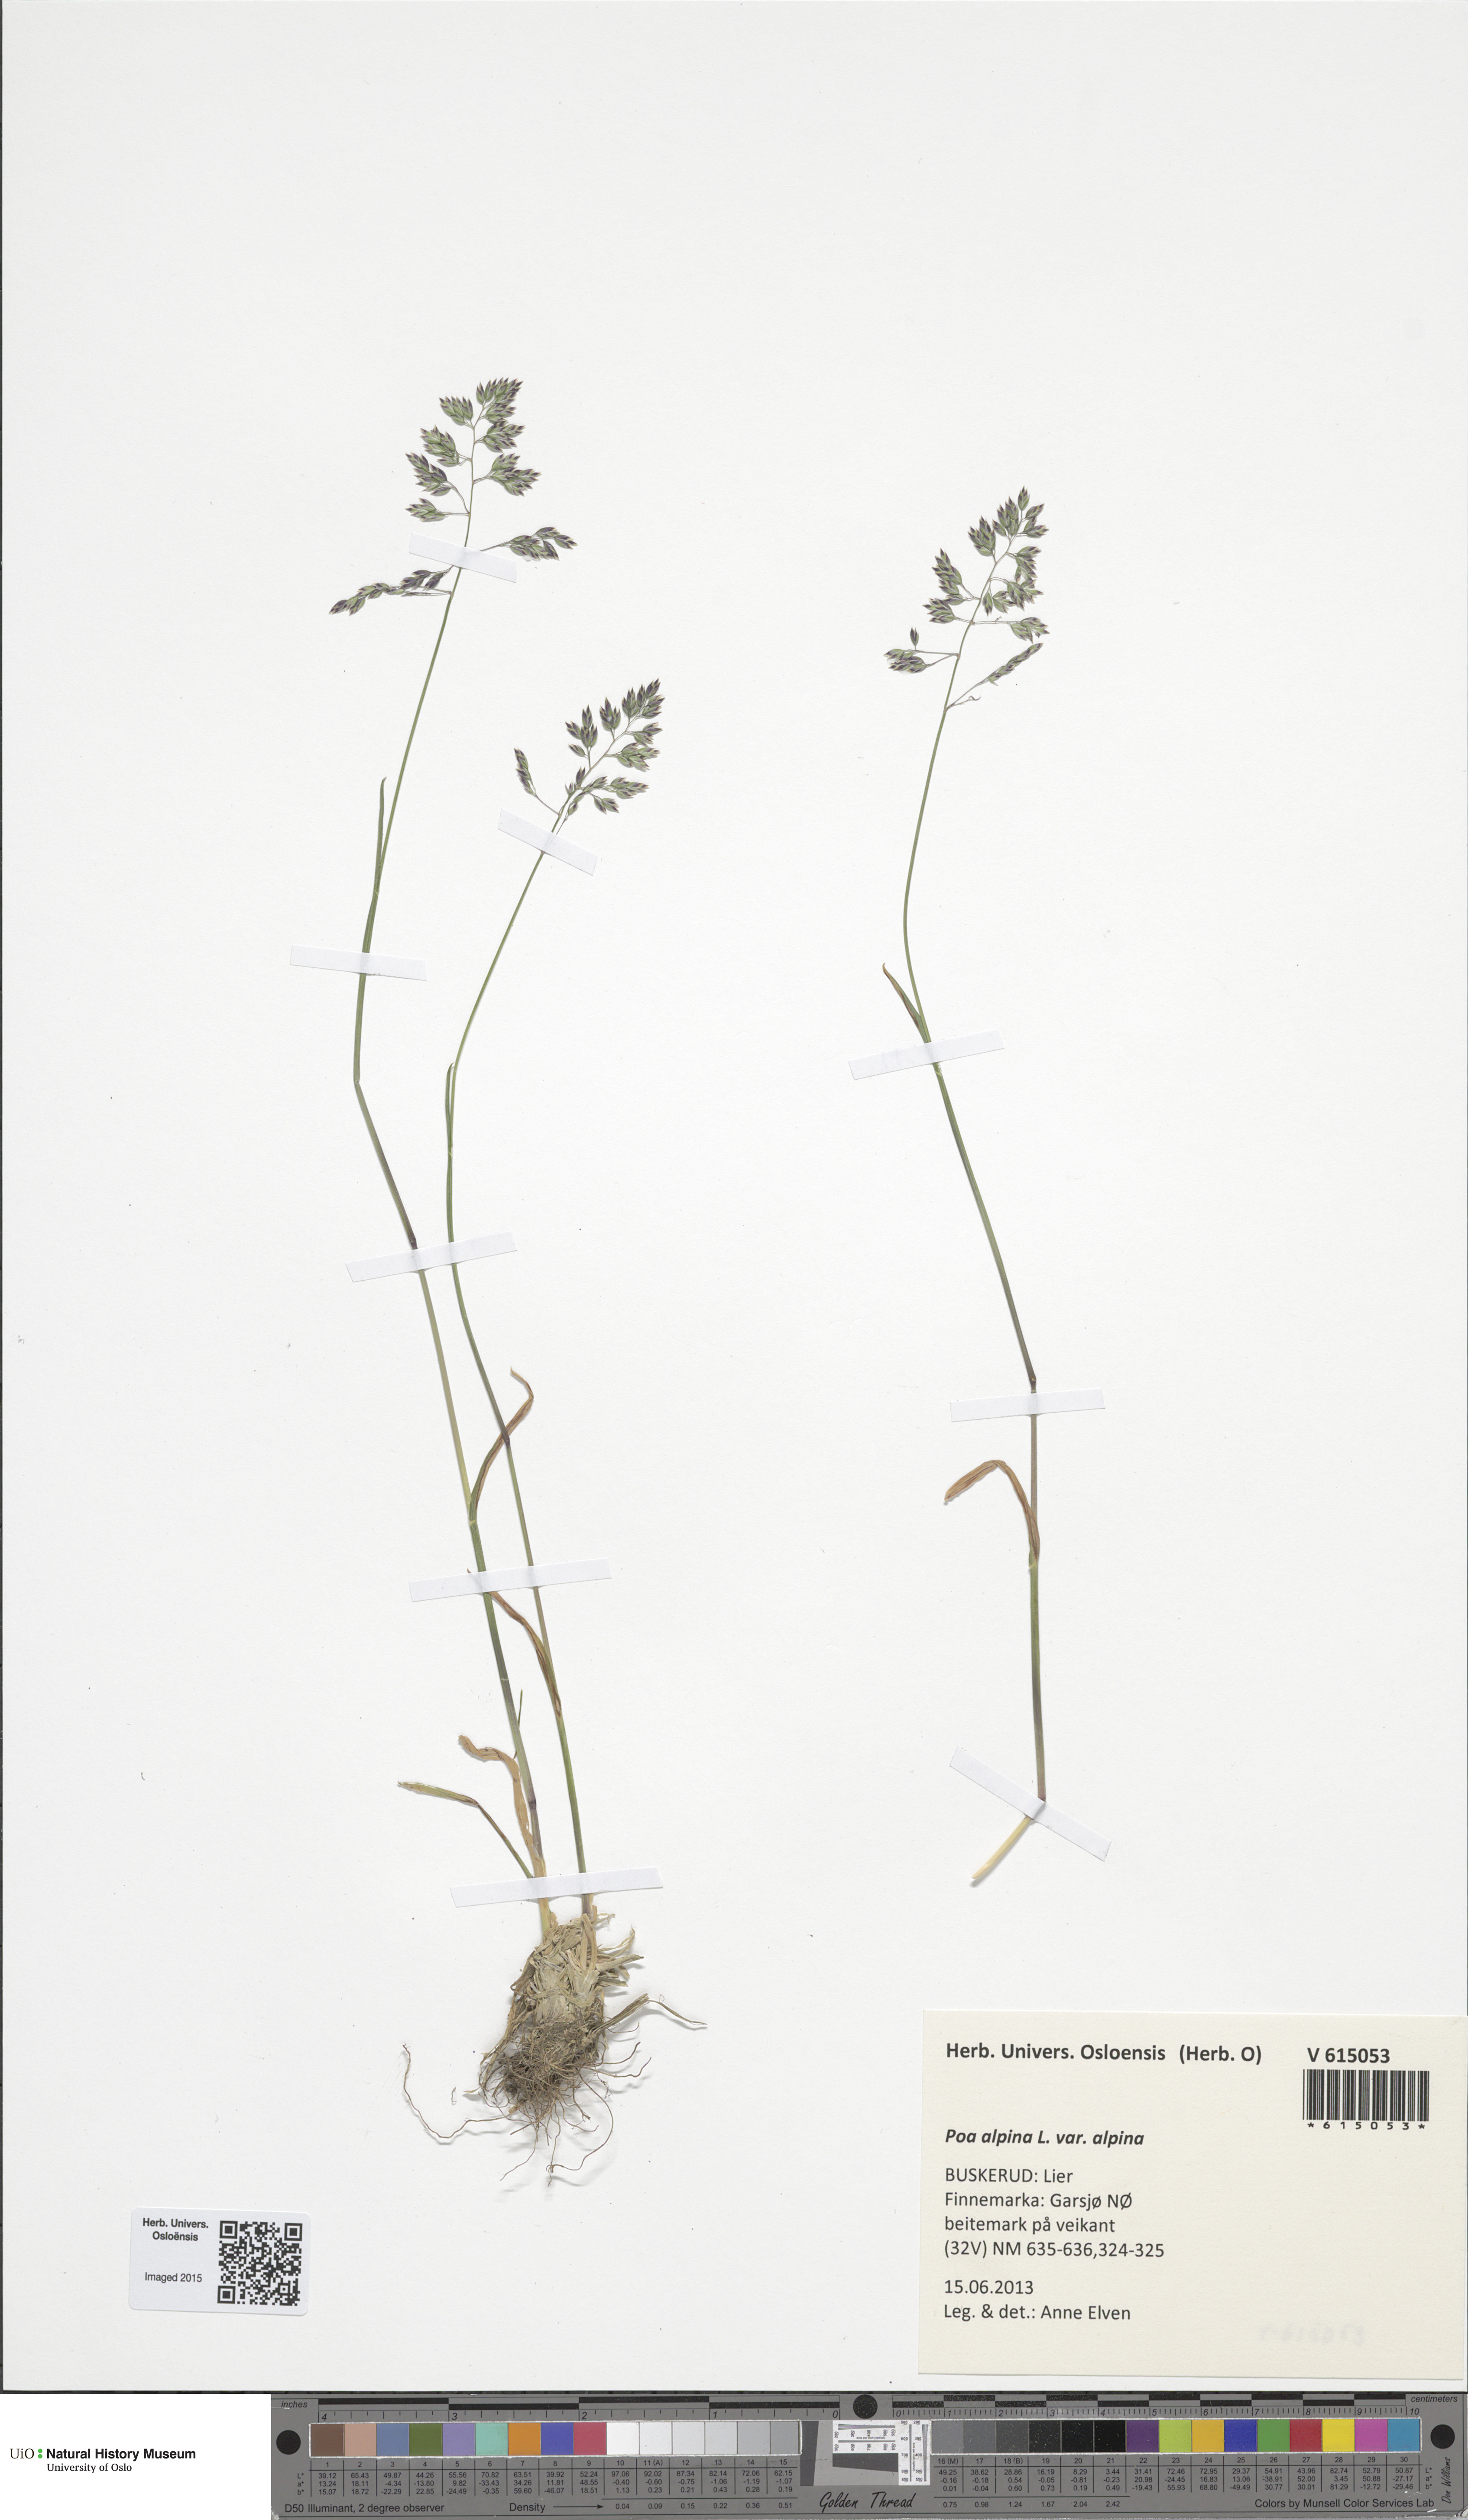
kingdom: Plantae
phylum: Tracheophyta
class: Liliopsida
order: Poales
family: Poaceae
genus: Poa
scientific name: Poa alpina
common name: Alpine bluegrass
